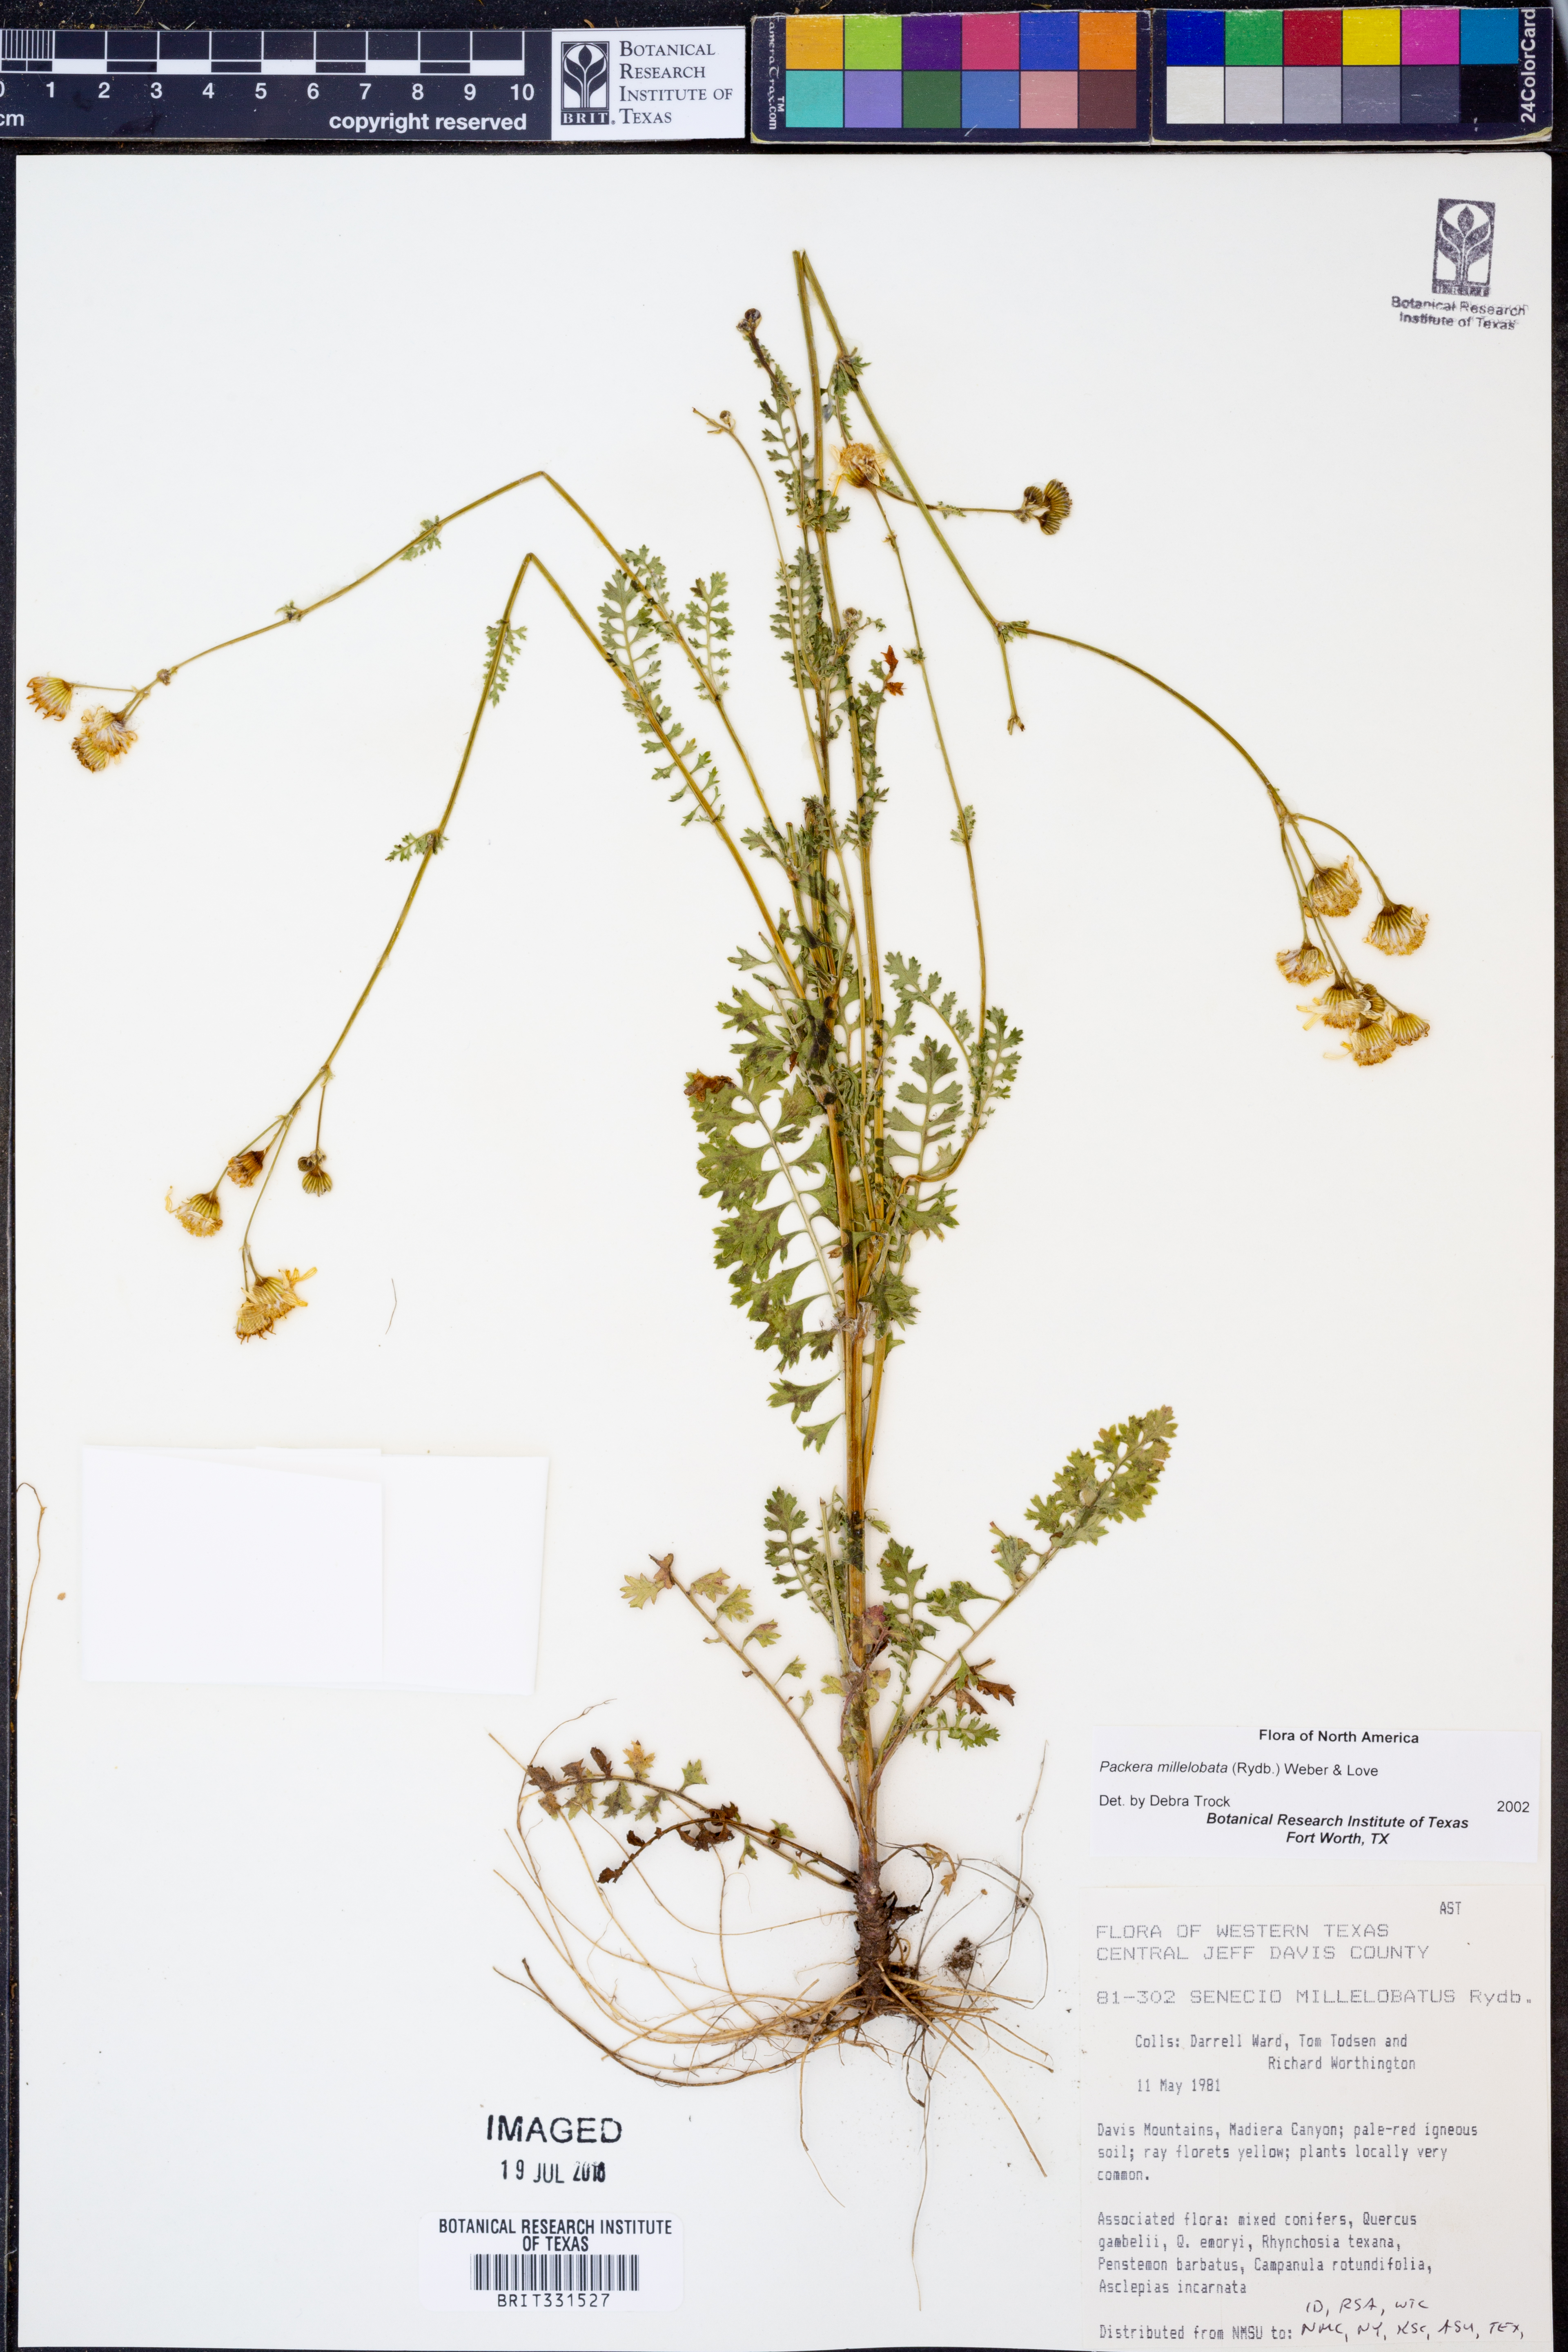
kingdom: Plantae
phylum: Tracheophyta
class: Magnoliopsida
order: Asterales
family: Asteraceae
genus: Packera
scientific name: Packera millelobata
